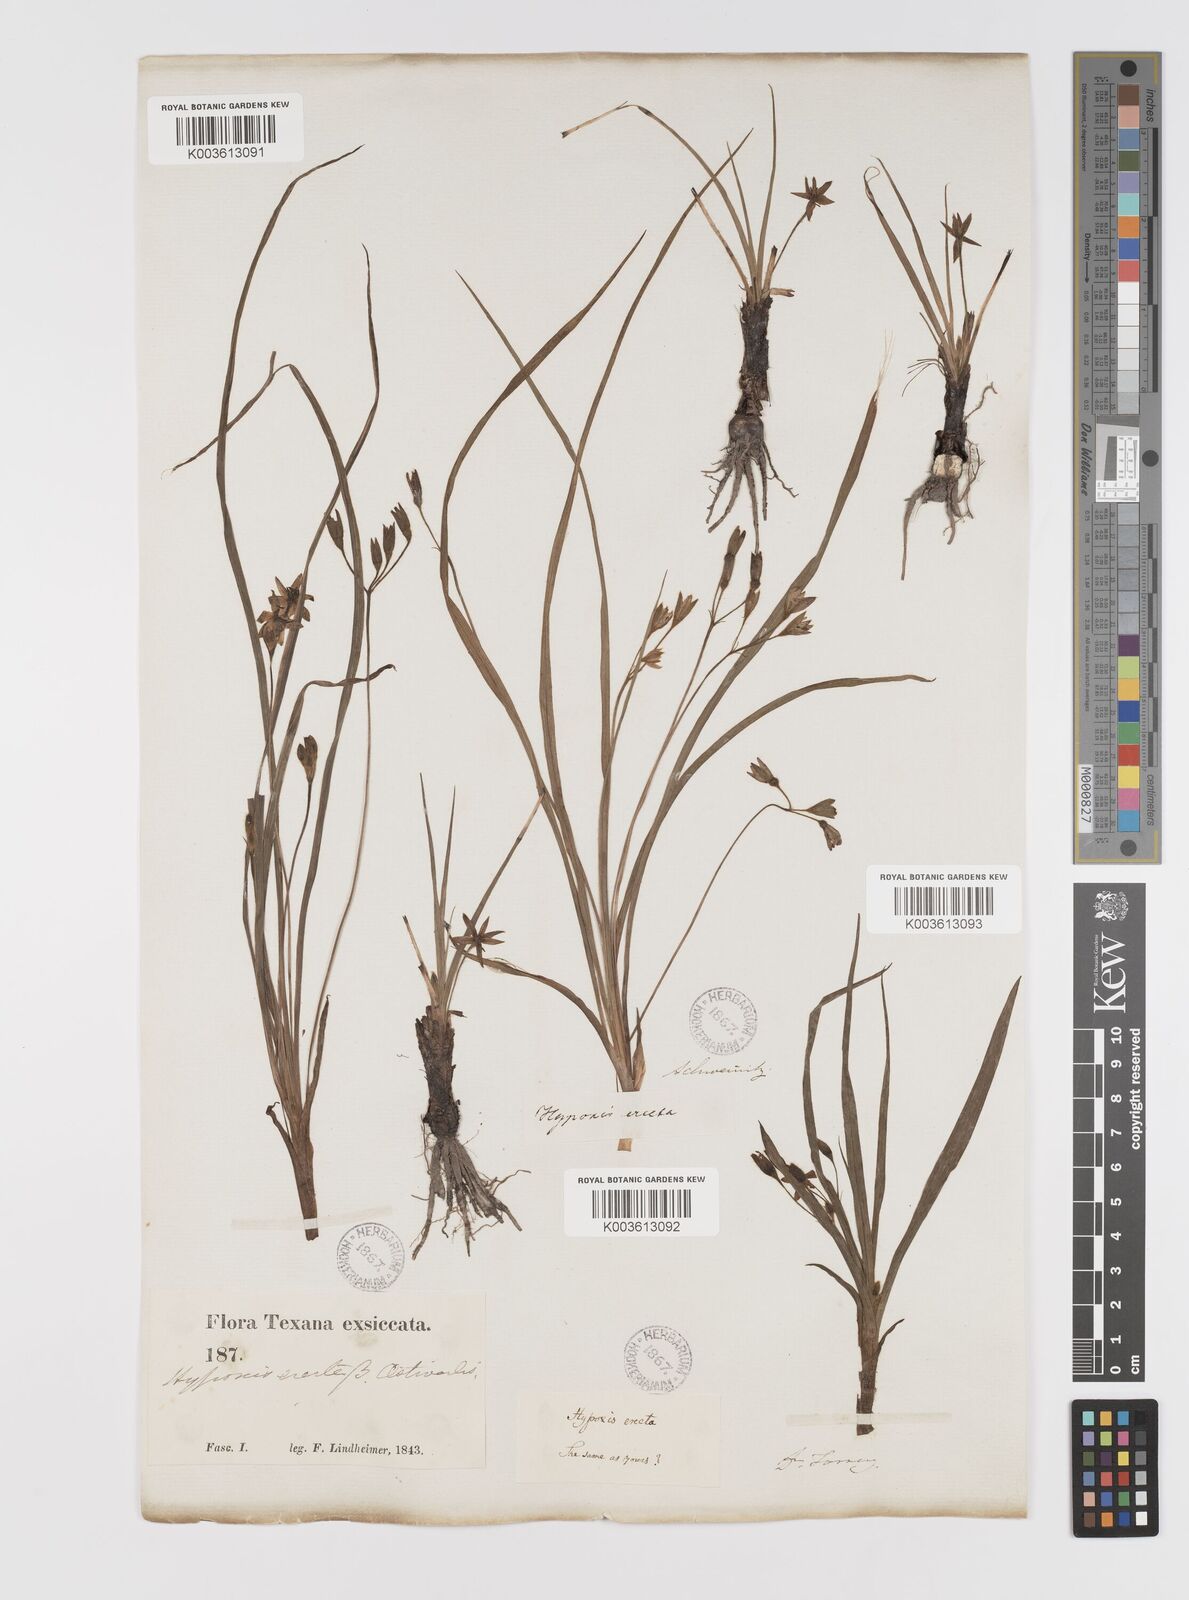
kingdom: Plantae
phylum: Tracheophyta
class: Liliopsida
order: Asparagales
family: Hypoxidaceae
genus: Hypoxis
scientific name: Hypoxis hirsuta
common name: Common goldstar
